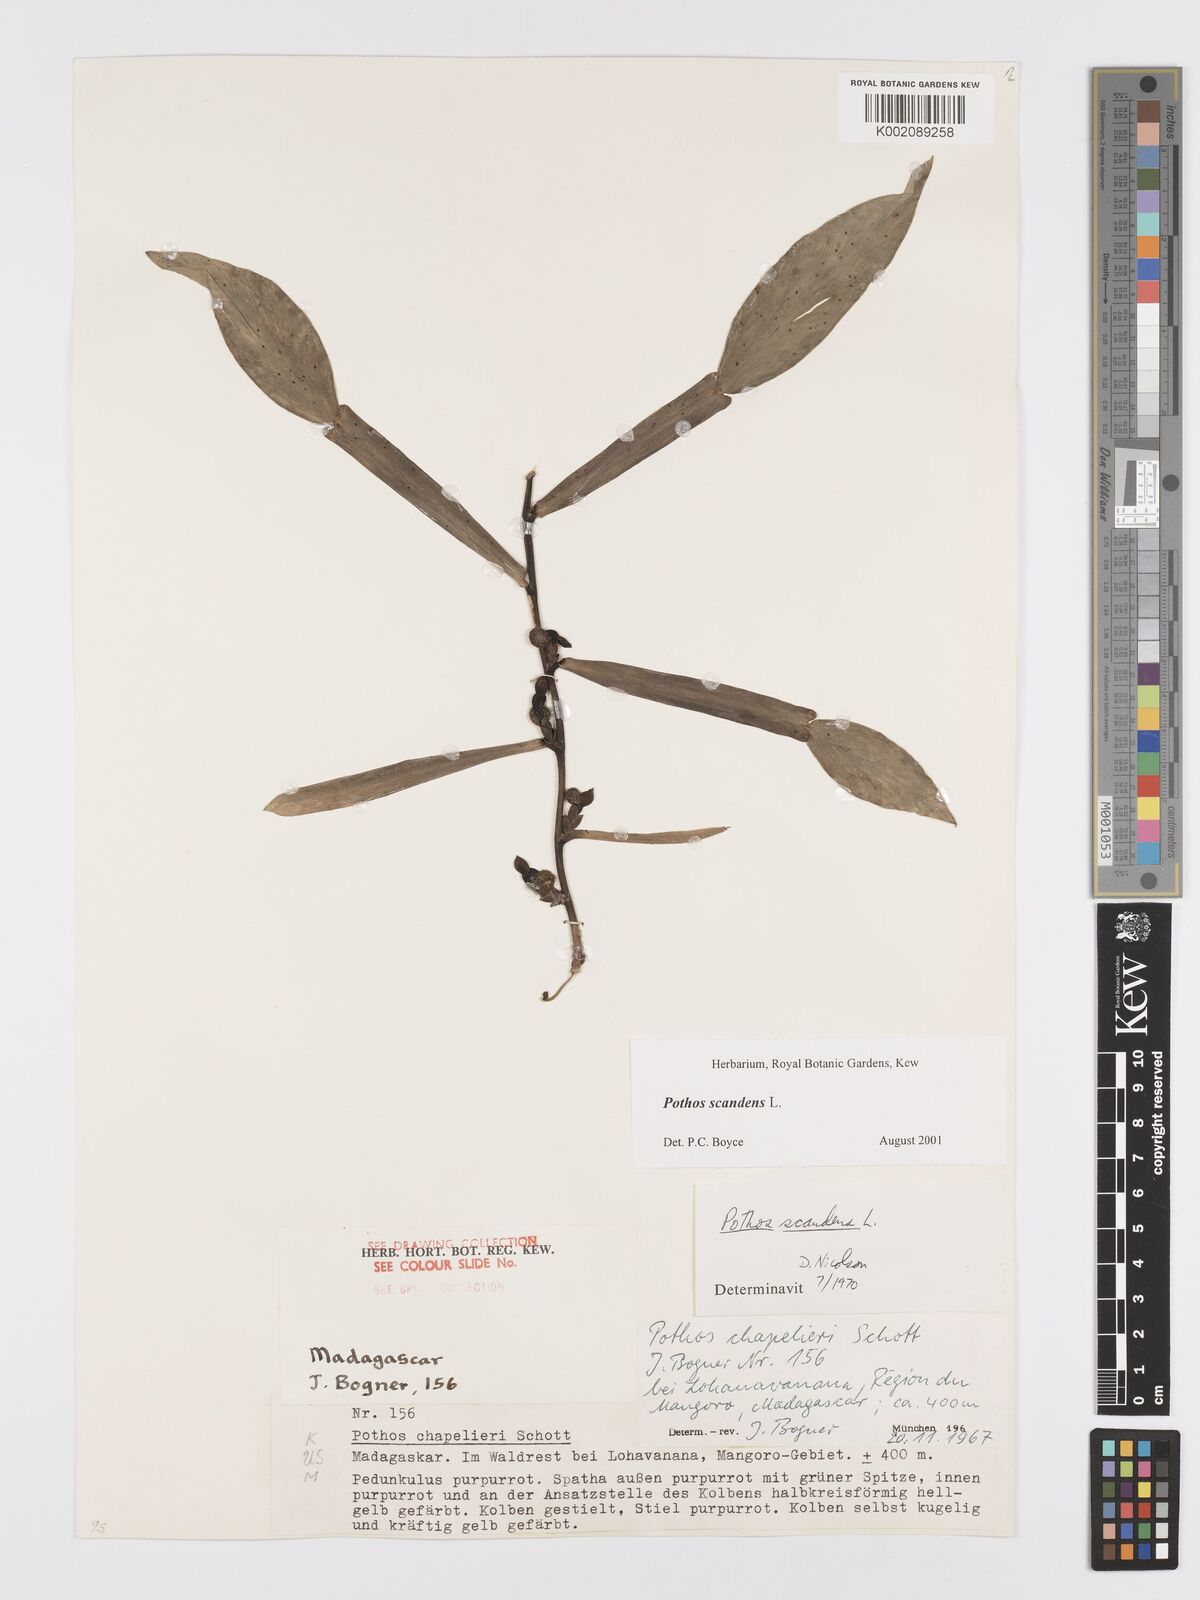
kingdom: Plantae
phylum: Tracheophyta
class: Liliopsida
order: Alismatales
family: Araceae
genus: Pothos
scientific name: Pothos scandens
